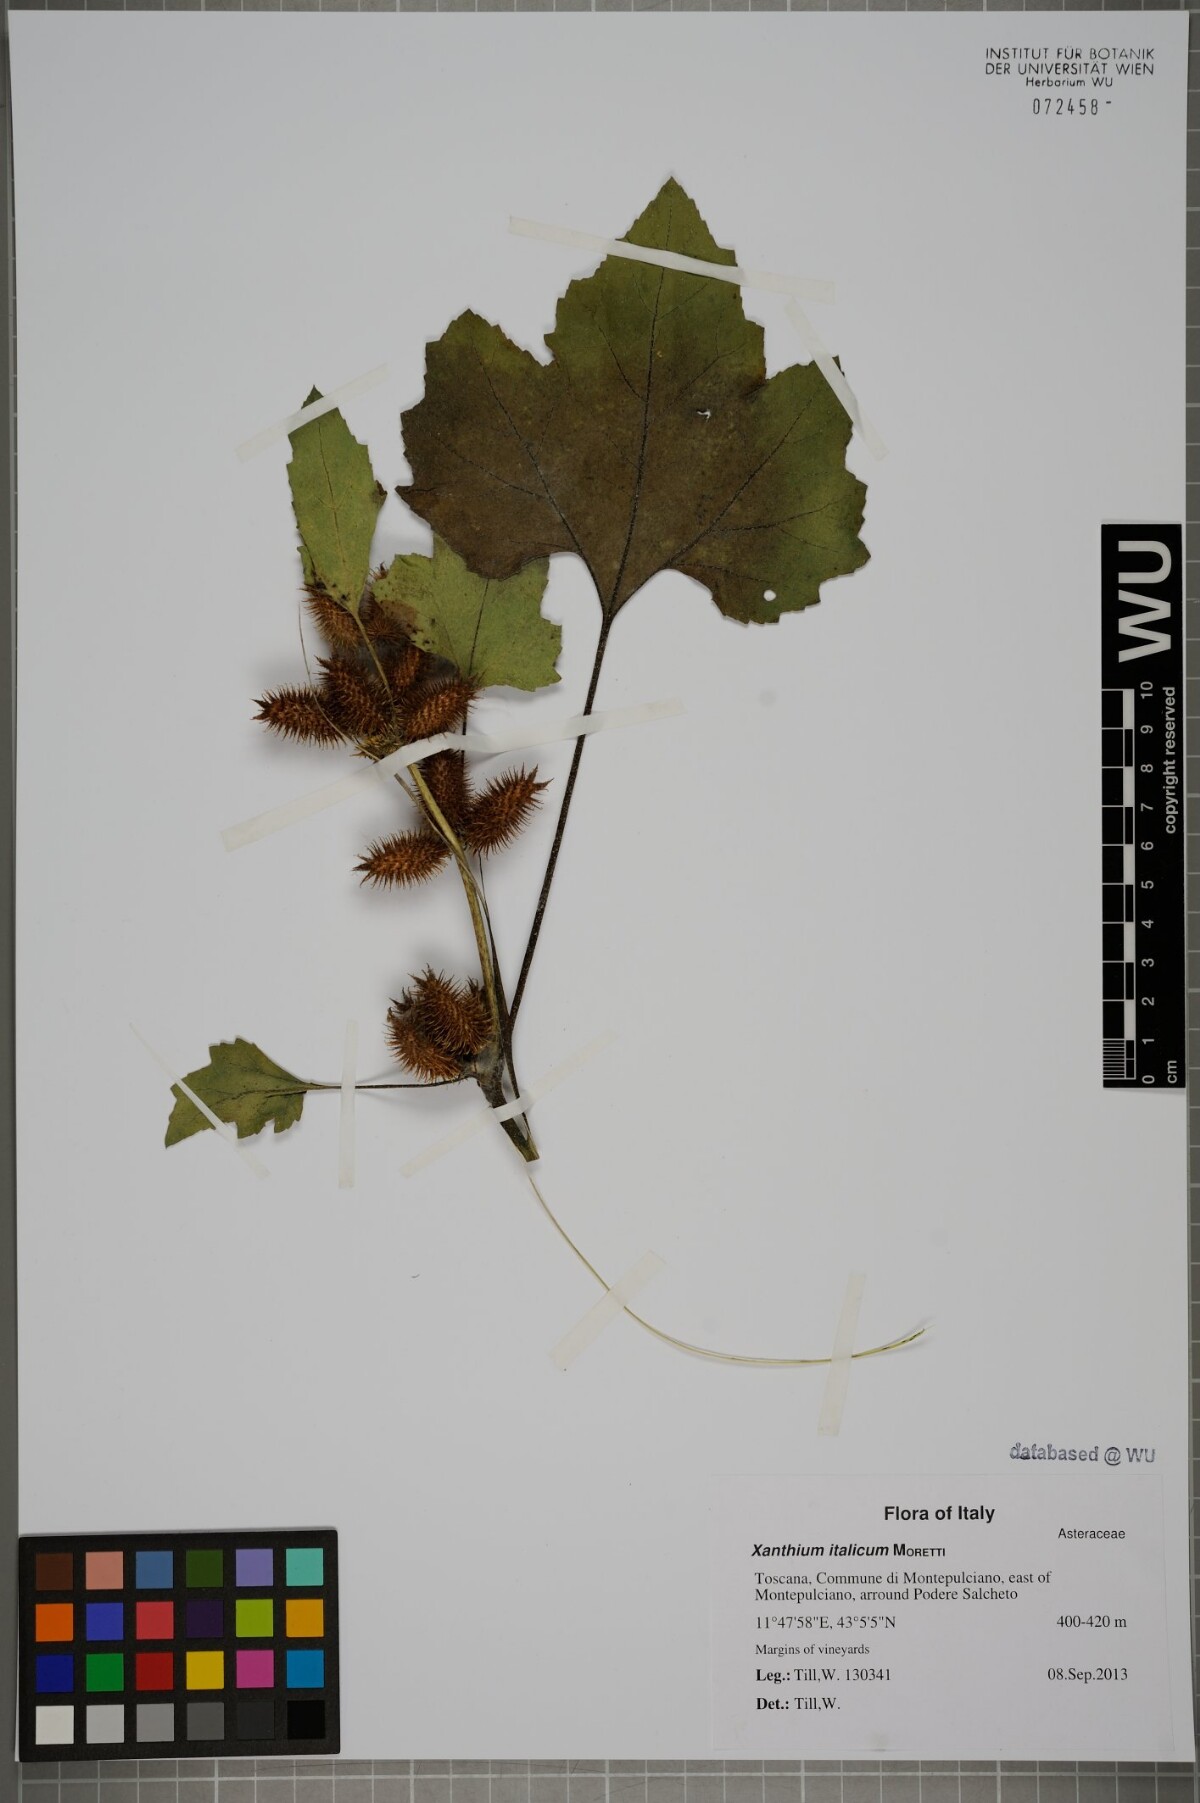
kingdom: Plantae
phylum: Tracheophyta
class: Magnoliopsida
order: Asterales
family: Asteraceae
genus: Xanthium
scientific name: Xanthium orientale
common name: Californian burr
